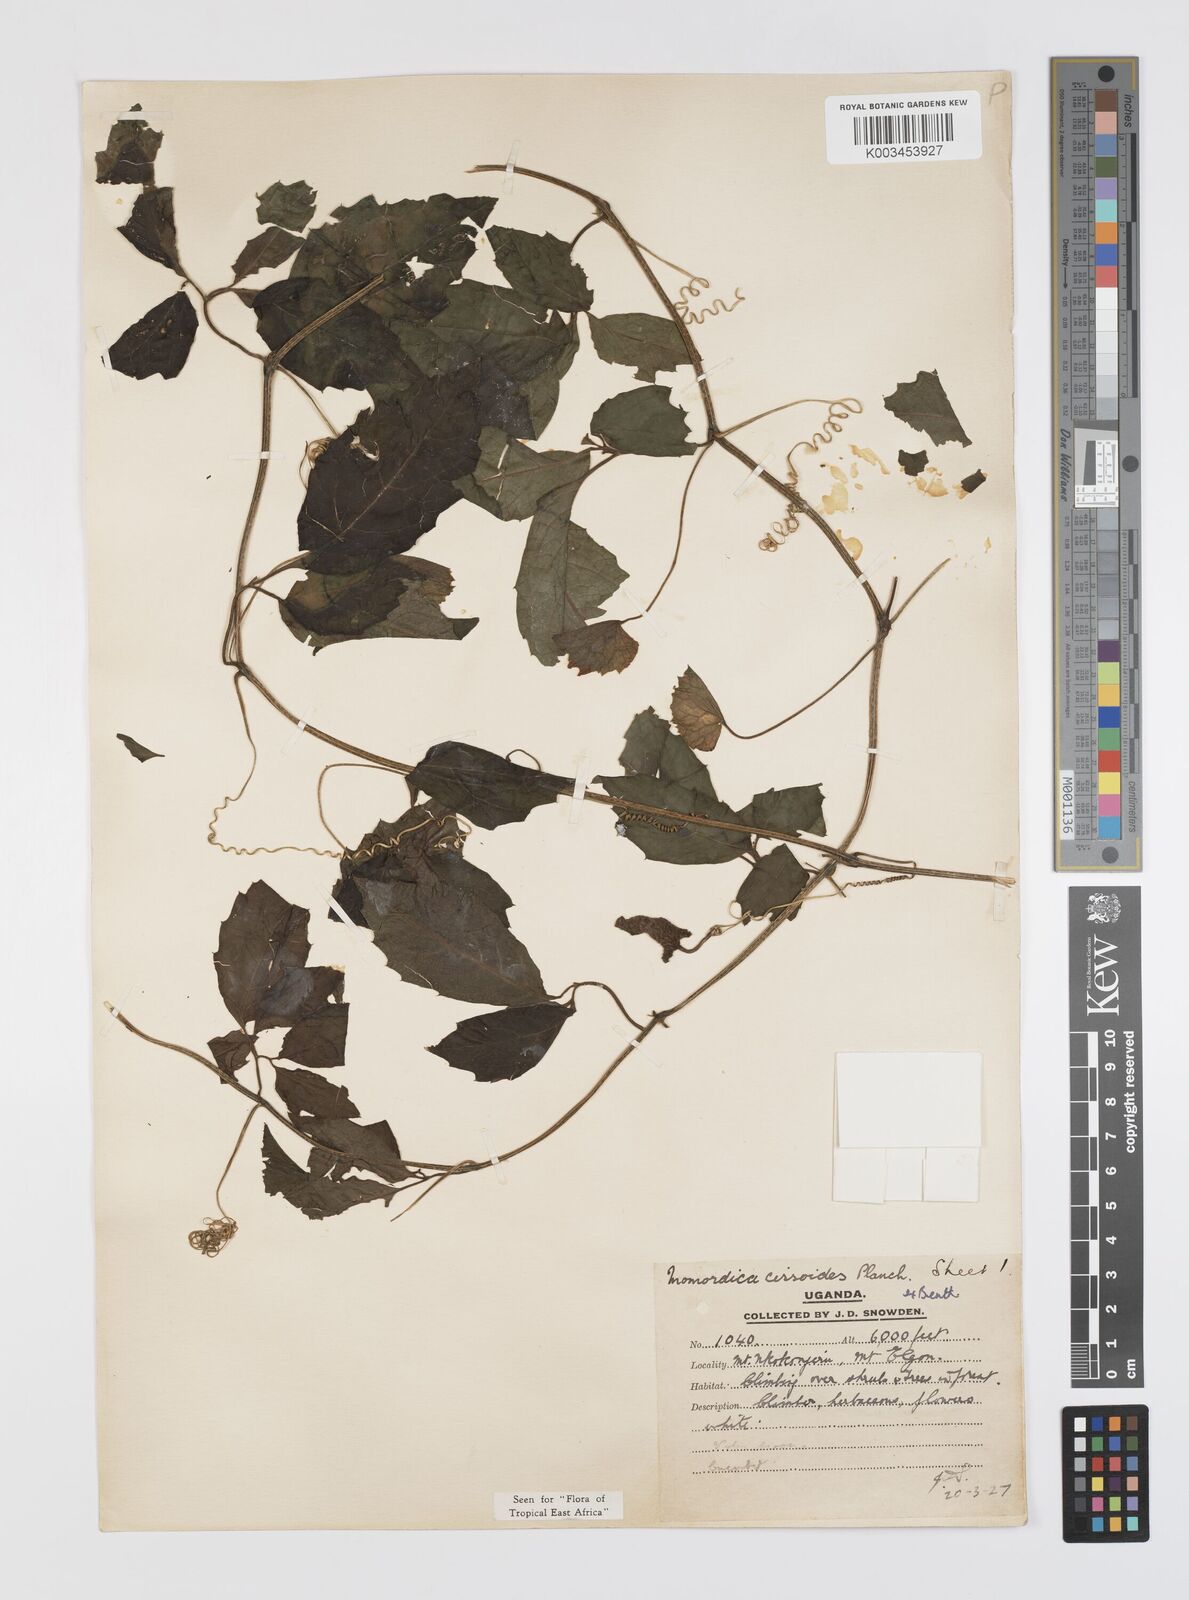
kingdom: Plantae
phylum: Tracheophyta
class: Magnoliopsida
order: Cucurbitales
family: Cucurbitaceae
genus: Momordica
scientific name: Momordica cissoides
